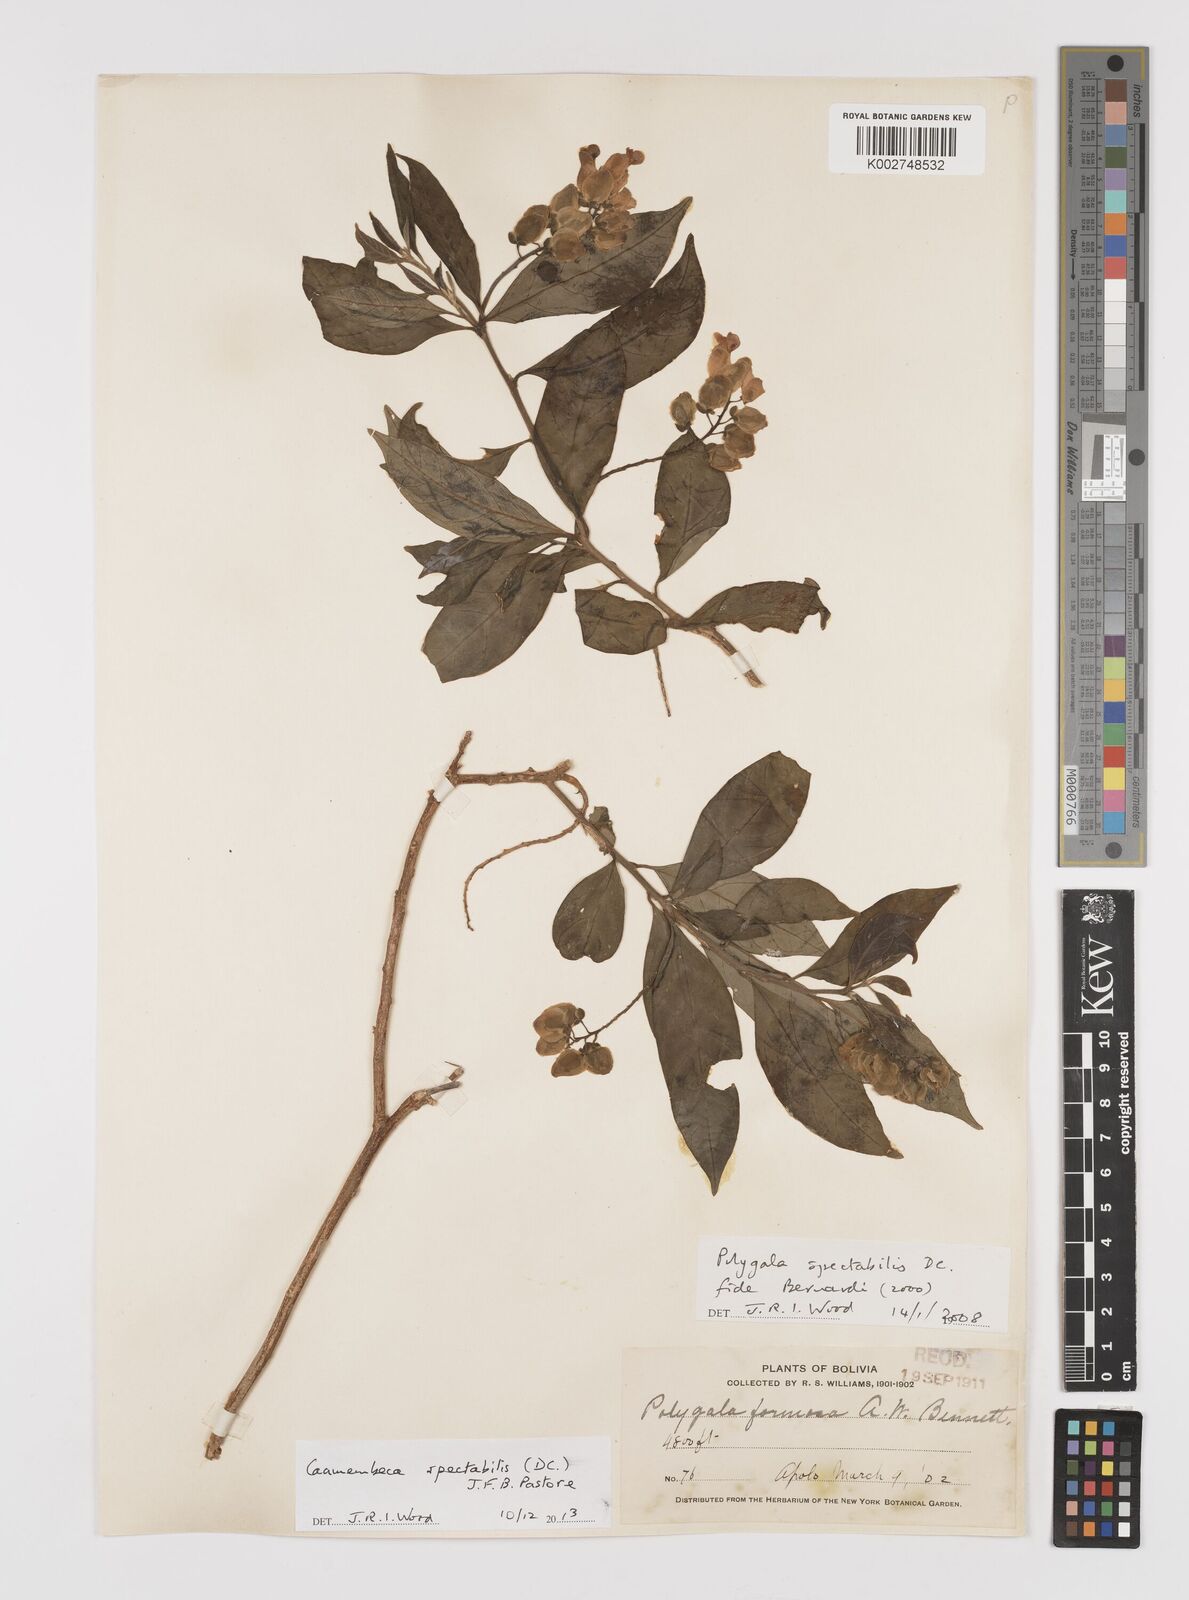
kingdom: Plantae
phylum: Tracheophyta
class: Magnoliopsida
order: Fabales
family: Polygalaceae
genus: Caamembeca
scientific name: Caamembeca spectabilis
